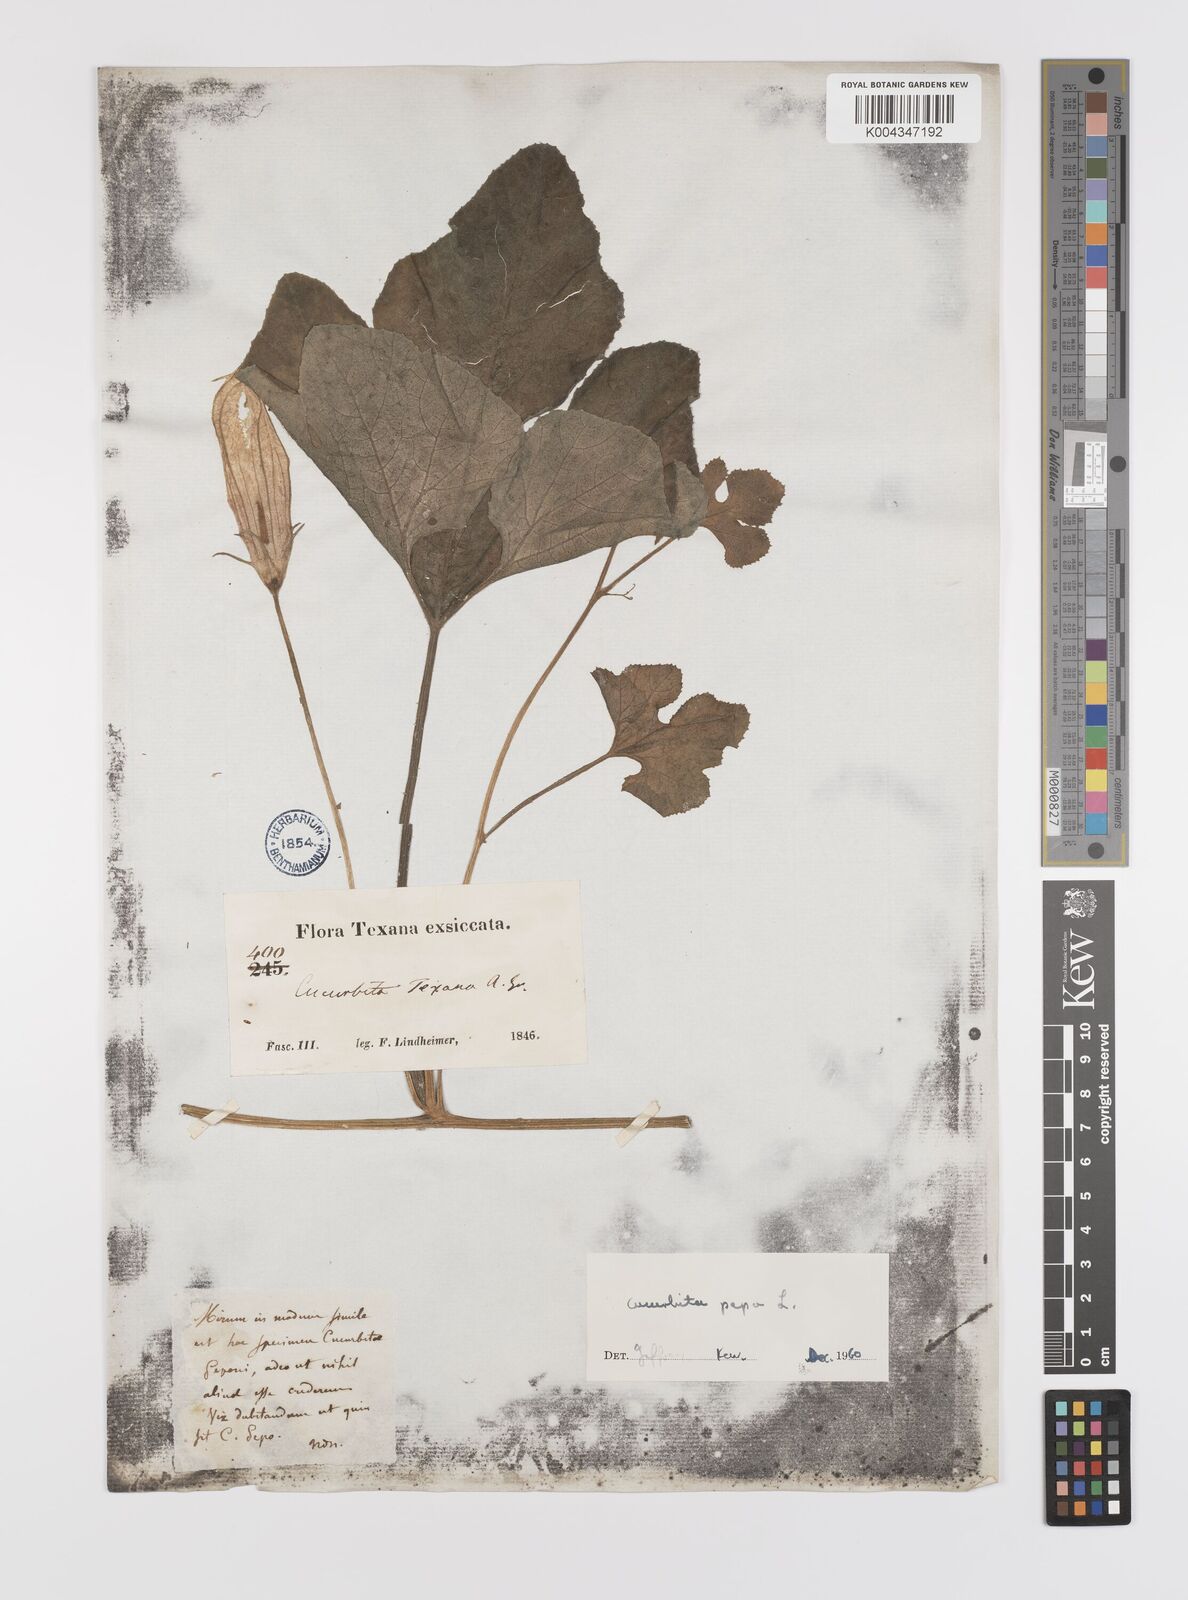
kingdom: Plantae
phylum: Tracheophyta
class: Magnoliopsida
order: Cucurbitales
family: Cucurbitaceae
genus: Cucurbita
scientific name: Cucurbita palmata
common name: Coyote-melon
